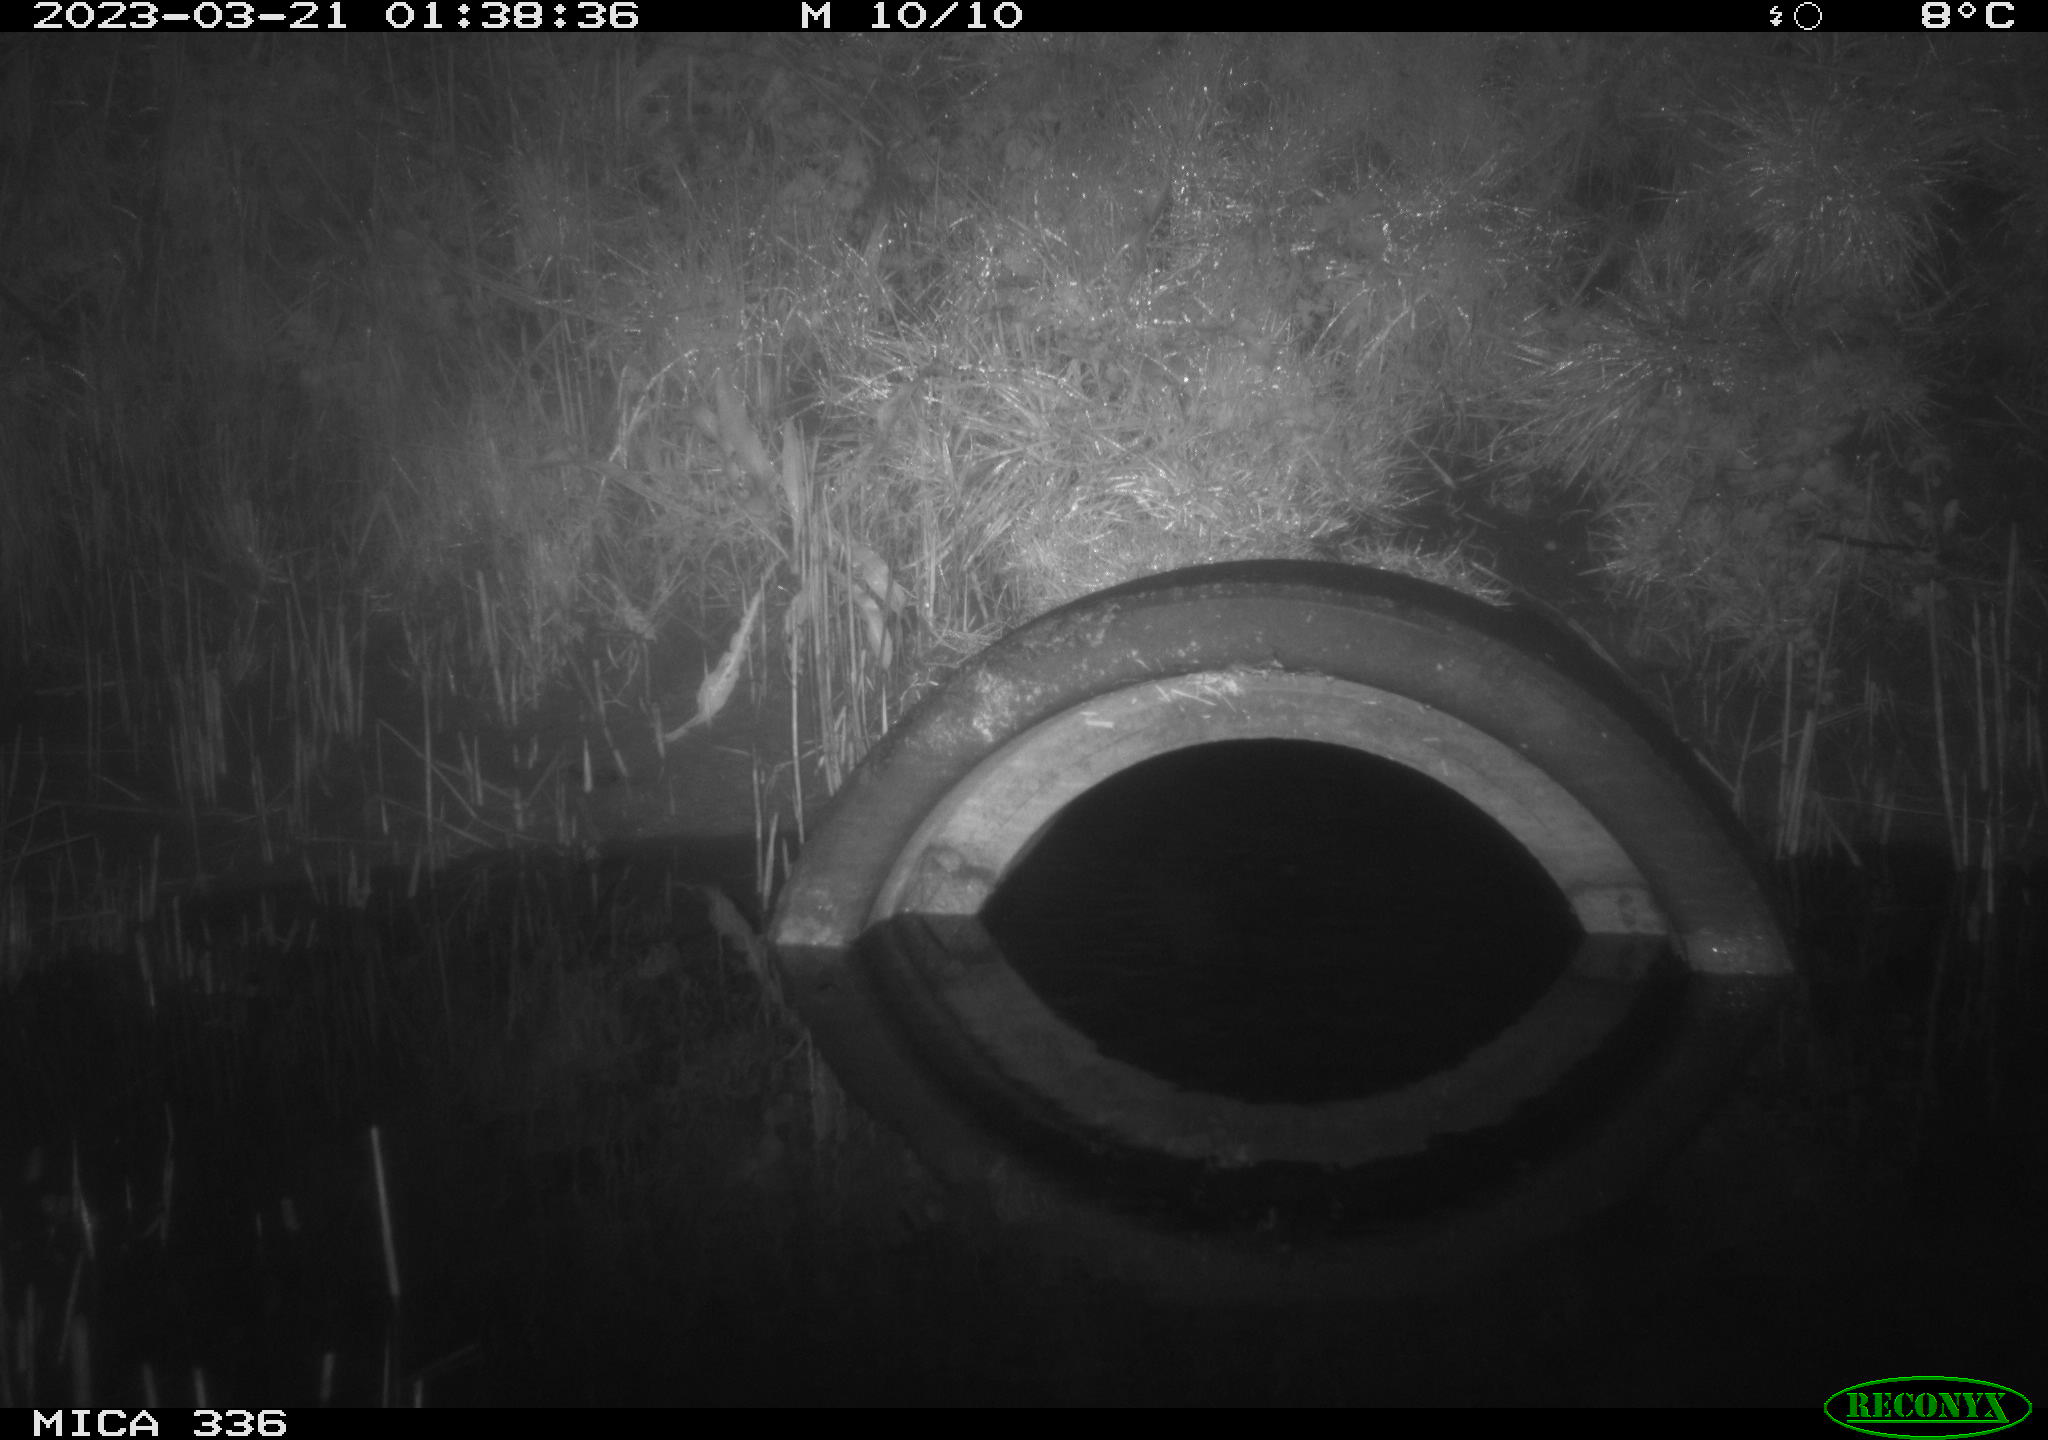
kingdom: Animalia
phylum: Chordata
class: Mammalia
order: Rodentia
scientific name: Rodentia
